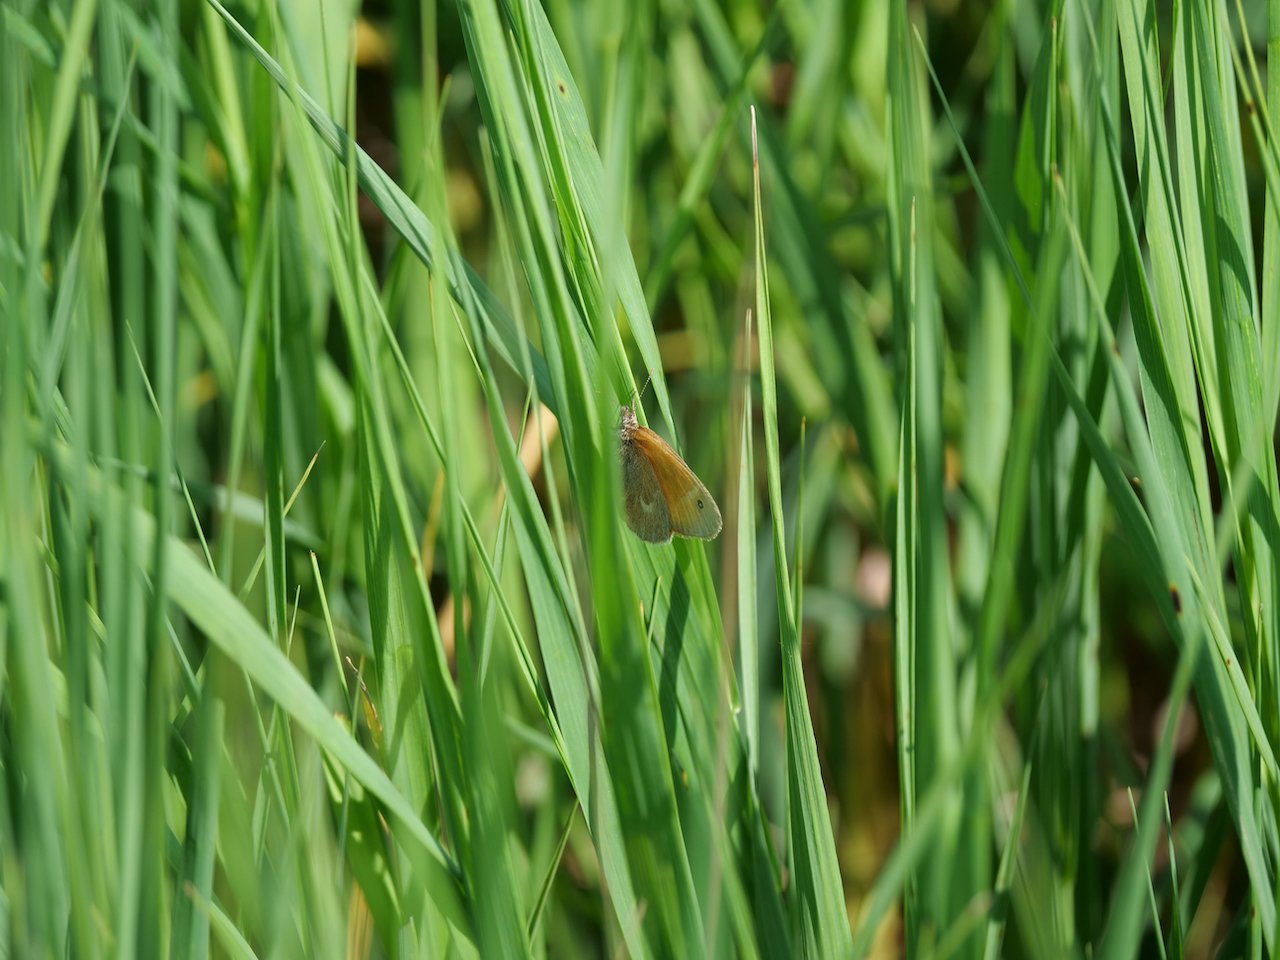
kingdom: Animalia
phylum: Arthropoda
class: Insecta
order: Lepidoptera
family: Nymphalidae
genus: Coenonympha
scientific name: Coenonympha tullia
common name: Large Heath
